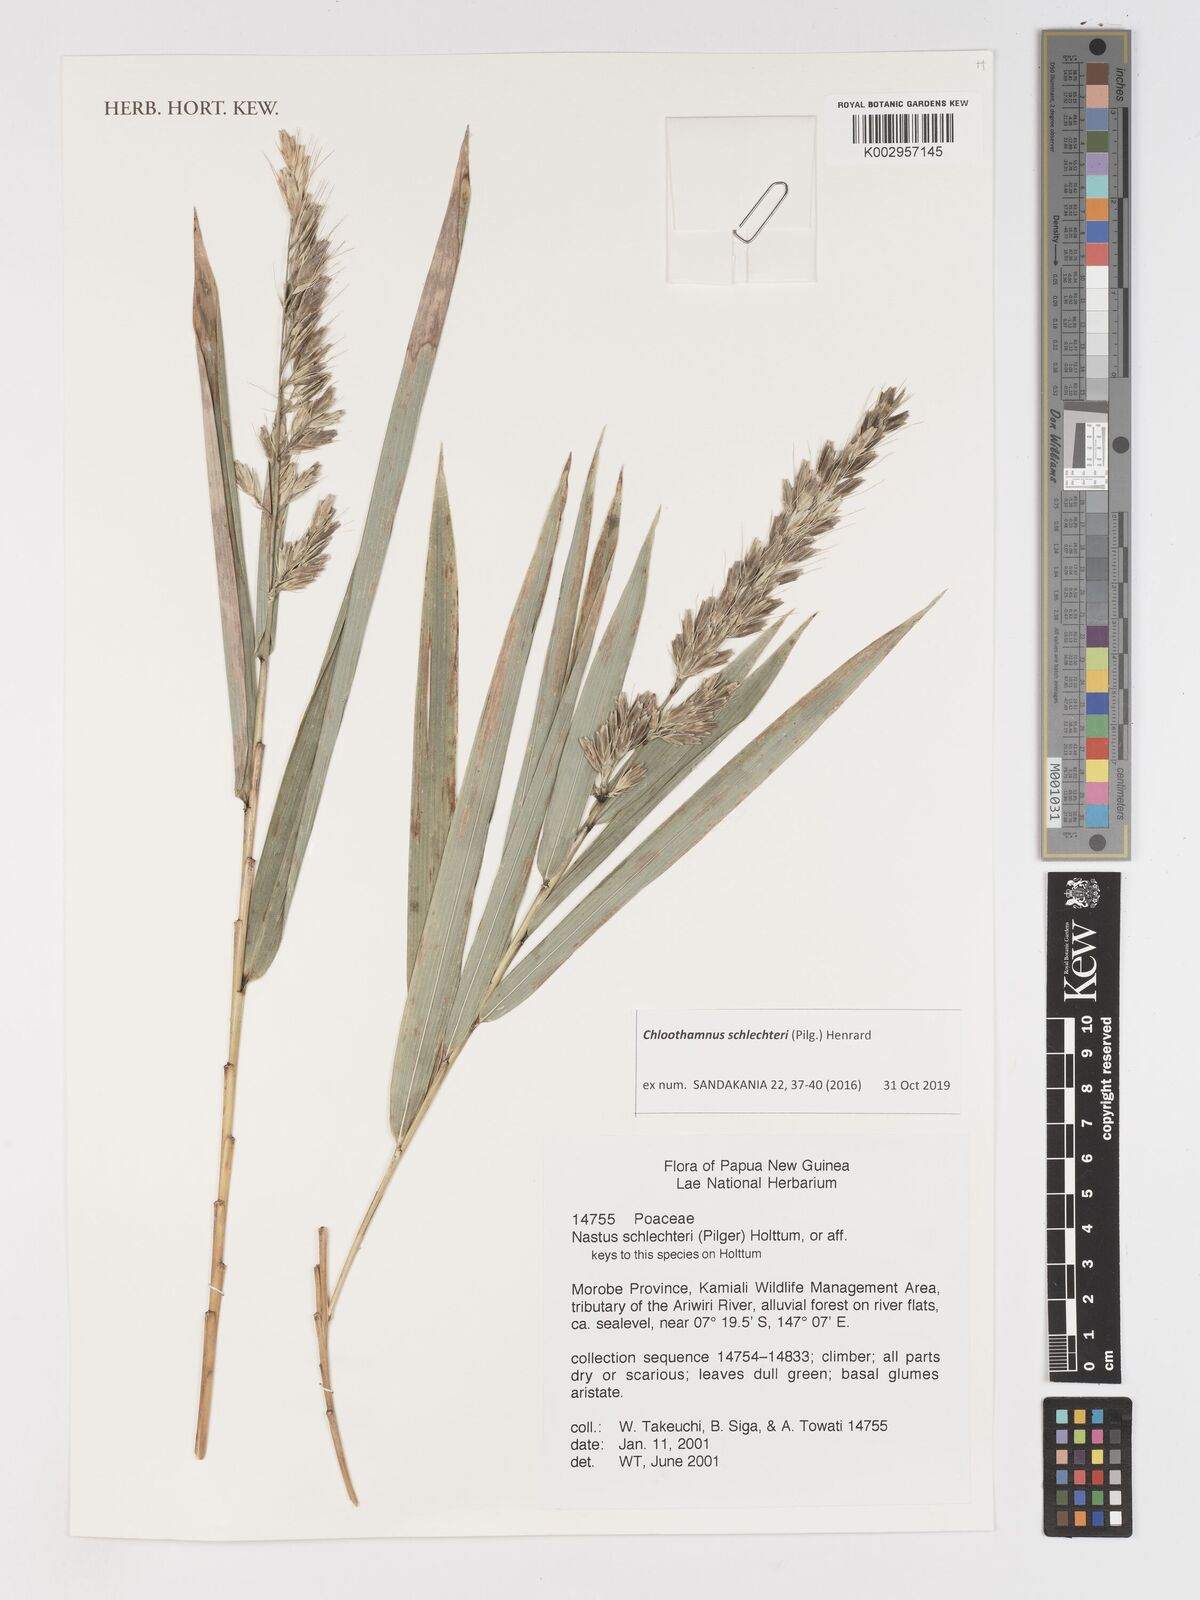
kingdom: Plantae
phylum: Tracheophyta
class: Liliopsida
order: Poales
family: Poaceae
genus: Chloothamnus
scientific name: Chloothamnus schlechteri
